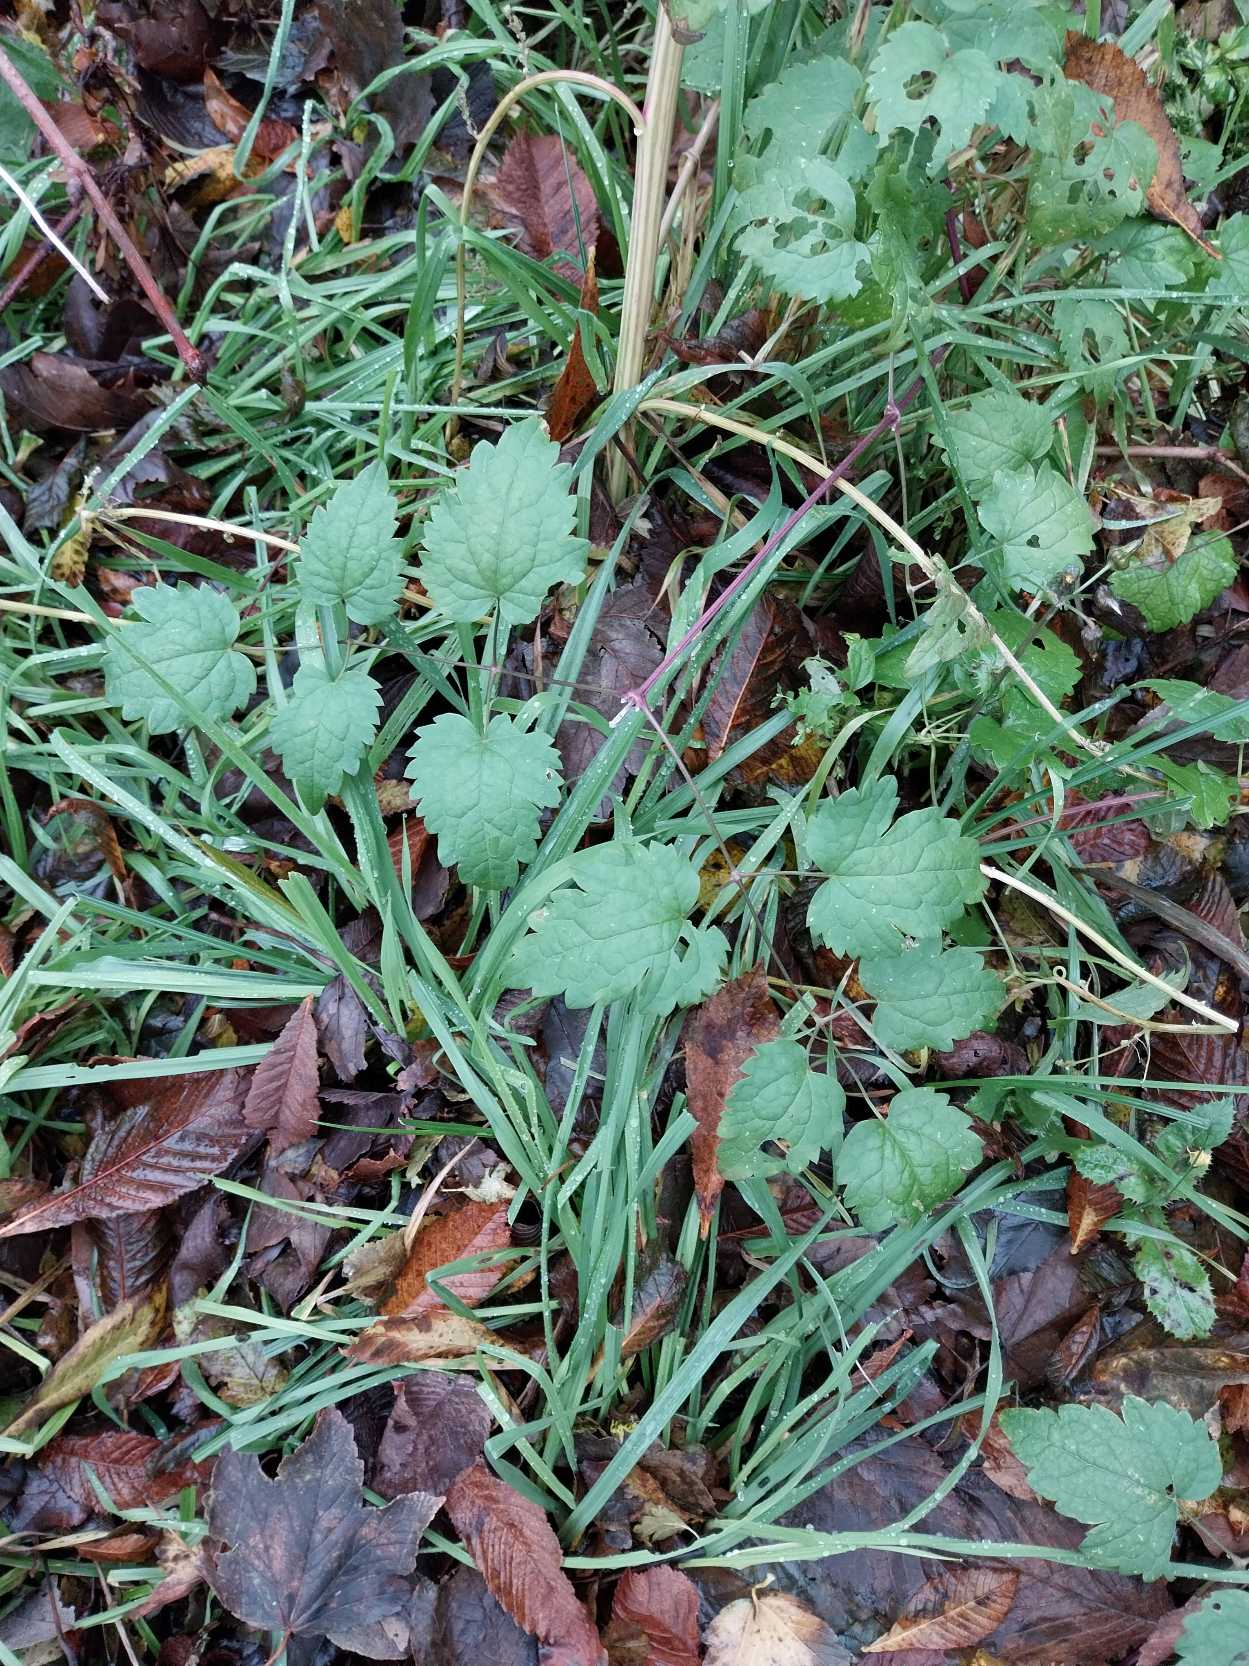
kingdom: Plantae
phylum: Tracheophyta
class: Magnoliopsida
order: Ranunculales
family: Ranunculaceae
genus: Clematis
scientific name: Clematis vitalba
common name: Skovranke
